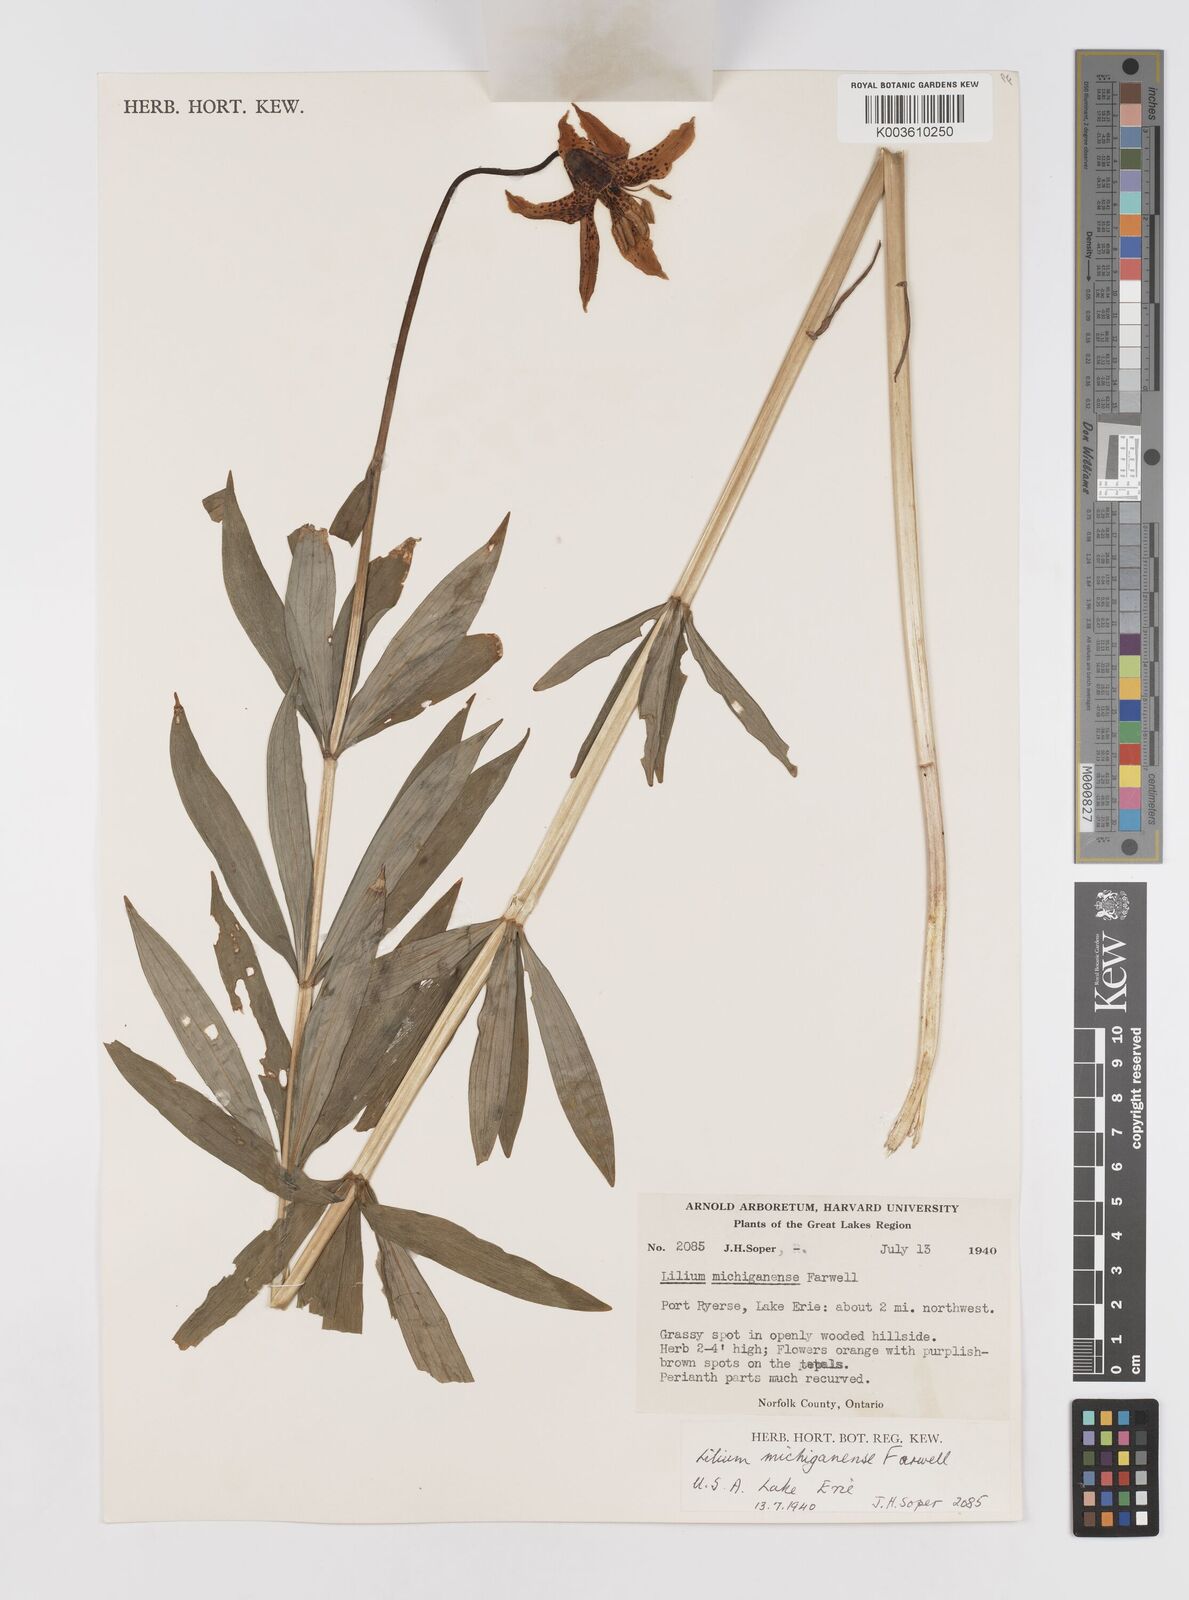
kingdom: Plantae
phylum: Tracheophyta
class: Liliopsida
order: Liliales
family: Liliaceae
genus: Lilium
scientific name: Lilium michiganense
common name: Michigan lily
